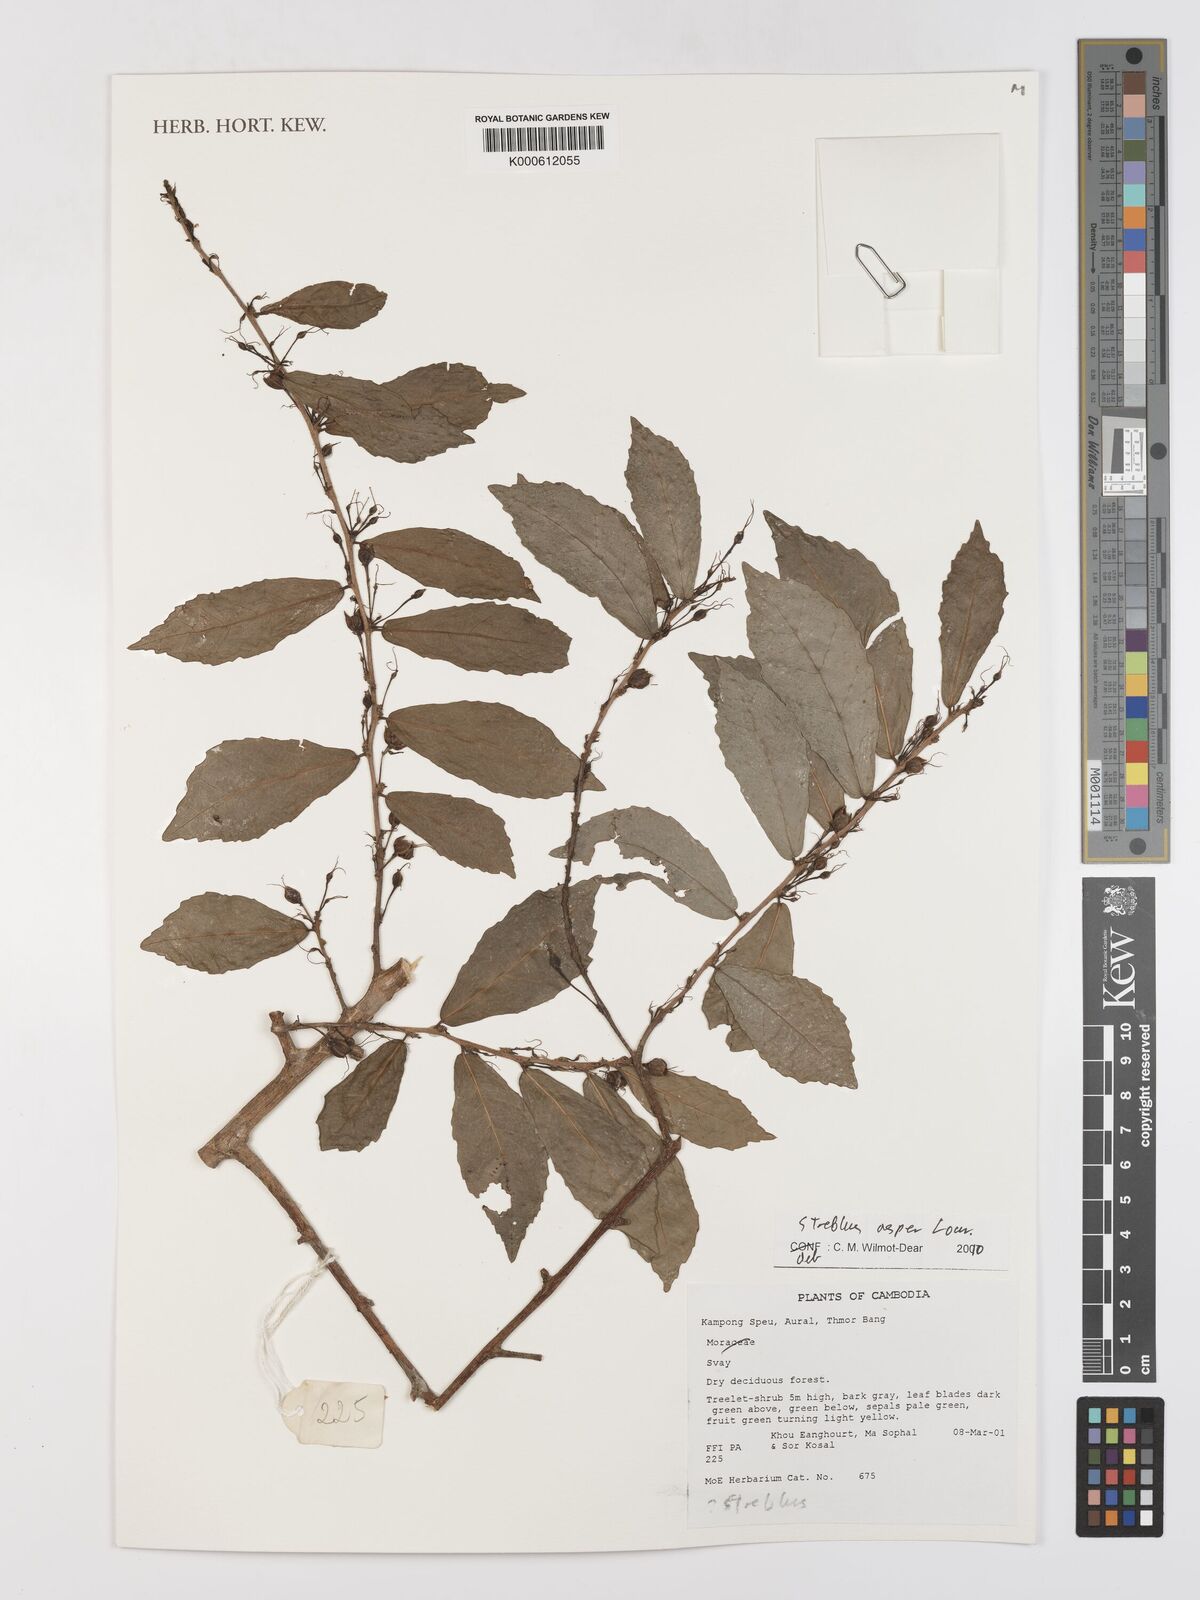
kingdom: Plantae
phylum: Tracheophyta
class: Magnoliopsida
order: Rosales
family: Moraceae
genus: Streblus
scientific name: Streblus asper
